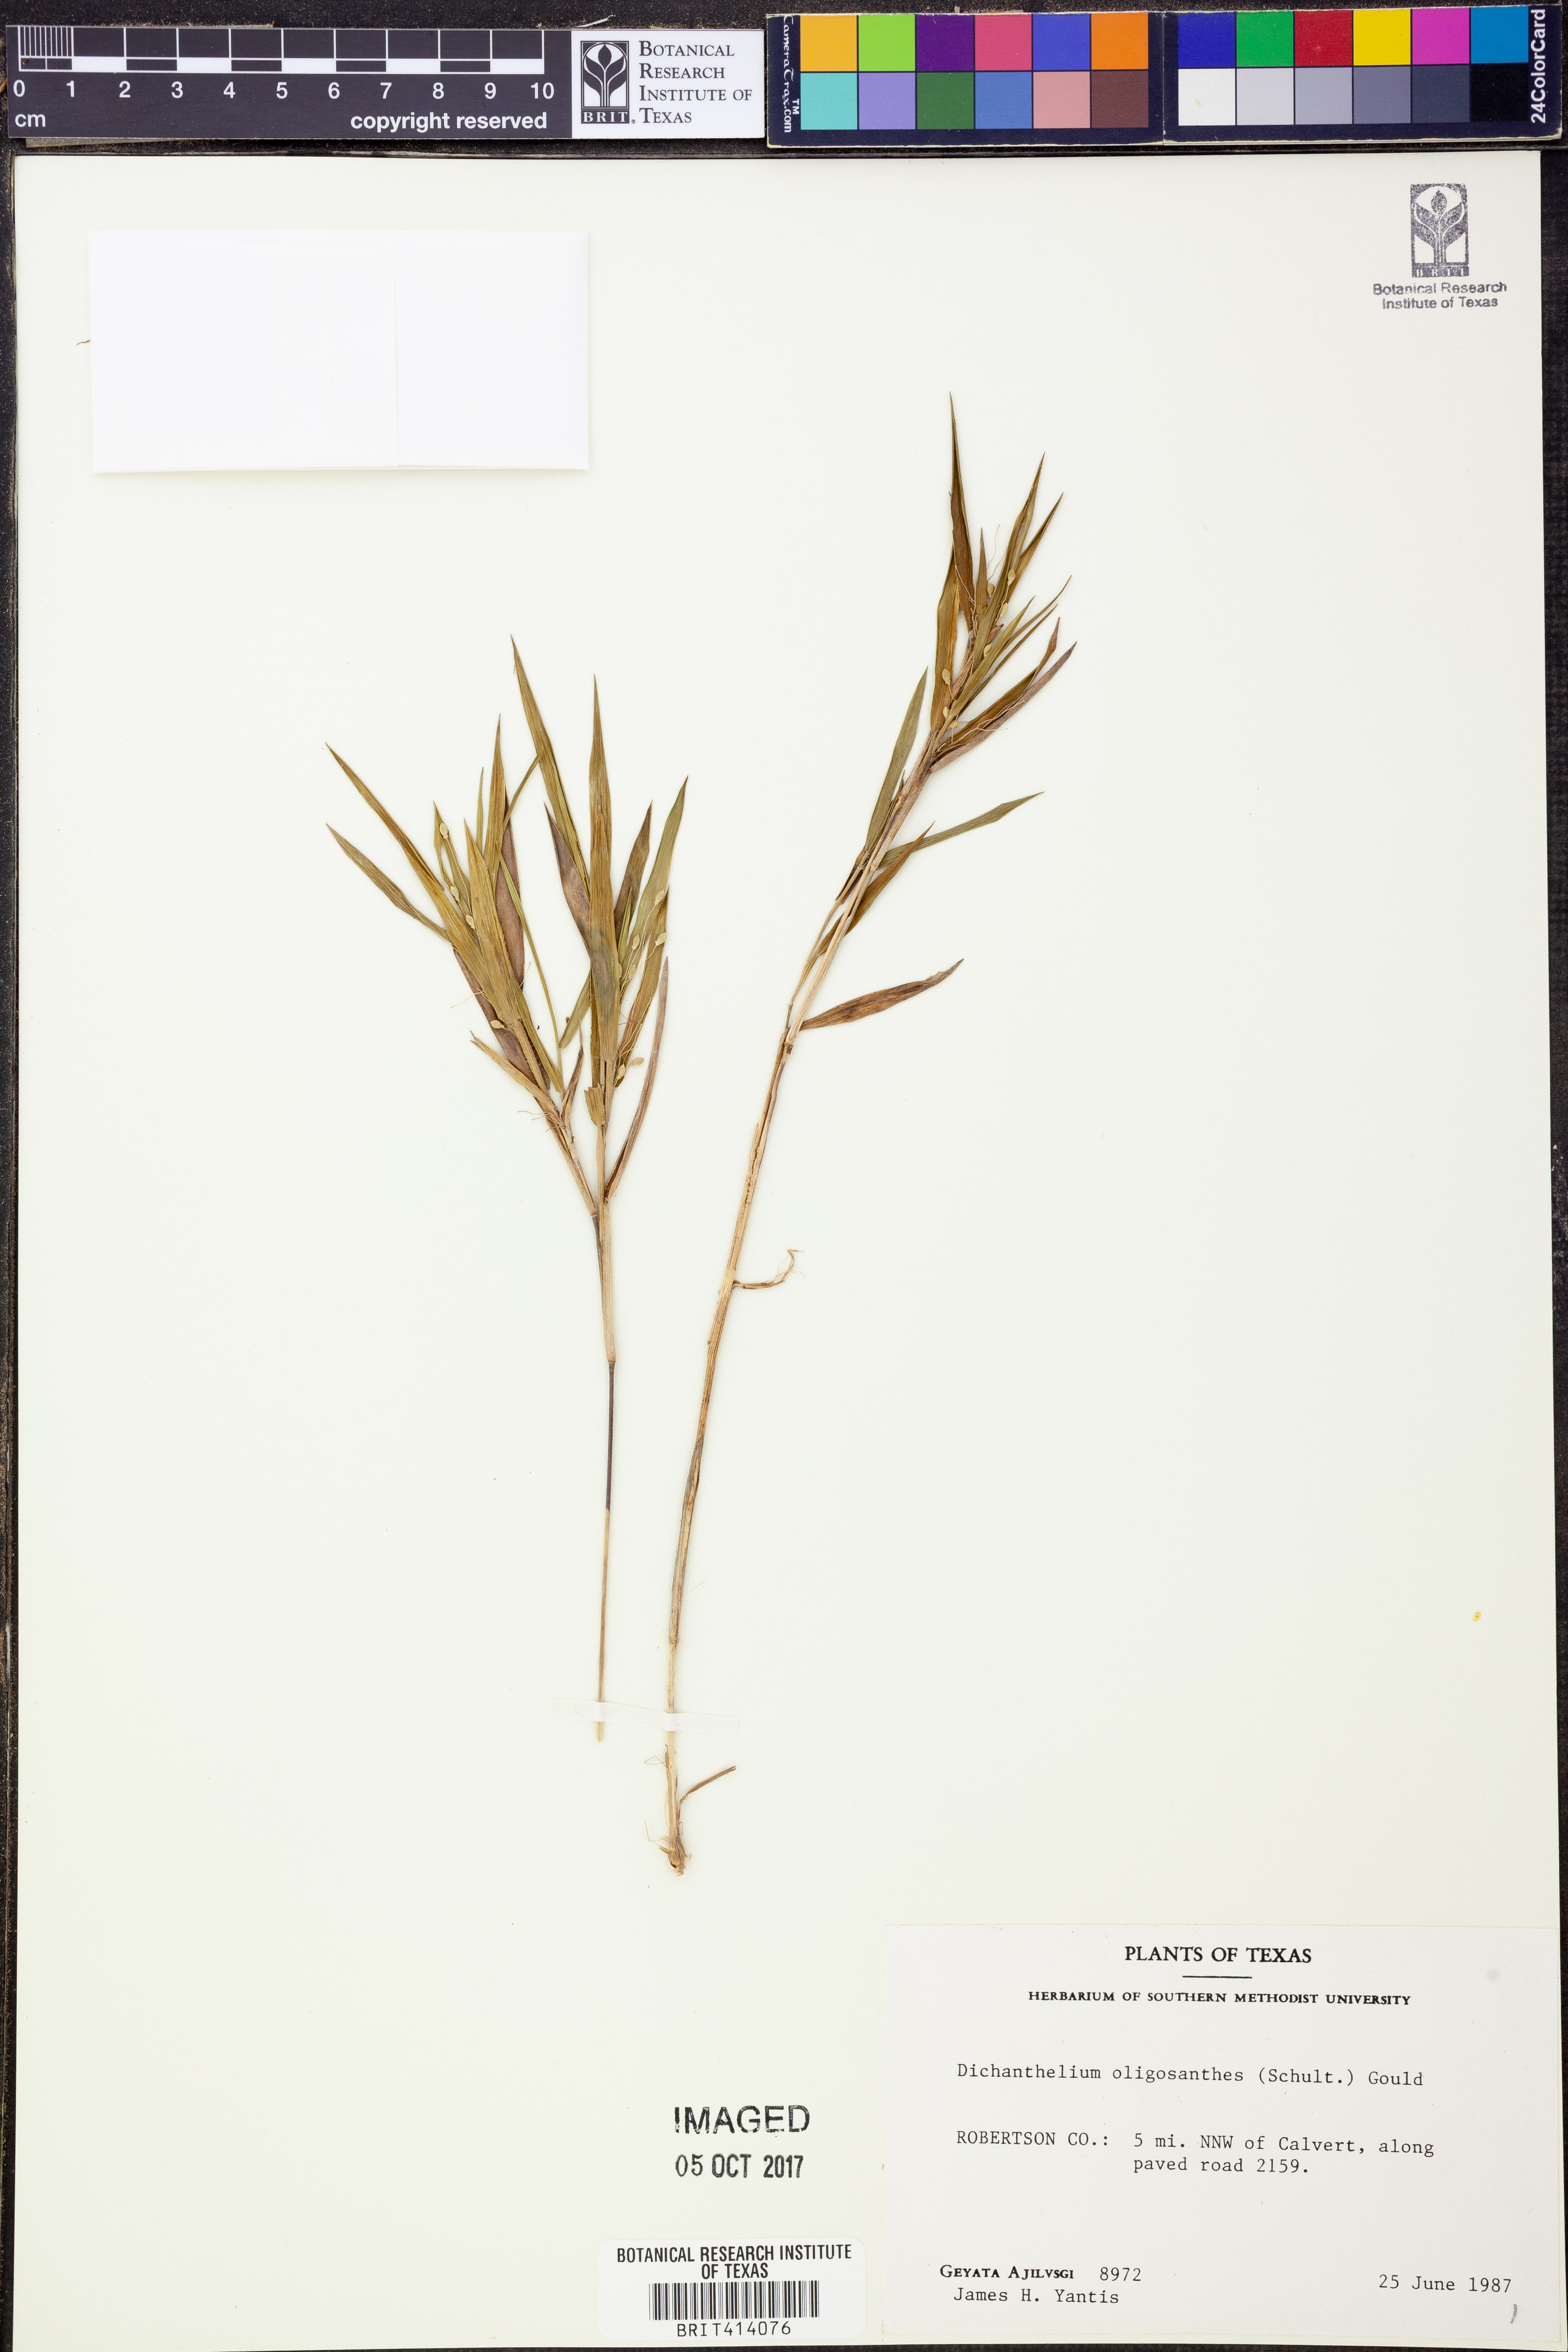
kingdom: Plantae
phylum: Tracheophyta
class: Liliopsida
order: Poales
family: Poaceae
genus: Dichanthelium
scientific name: Dichanthelium oligosanthes
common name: Few-anther obscuregrass
